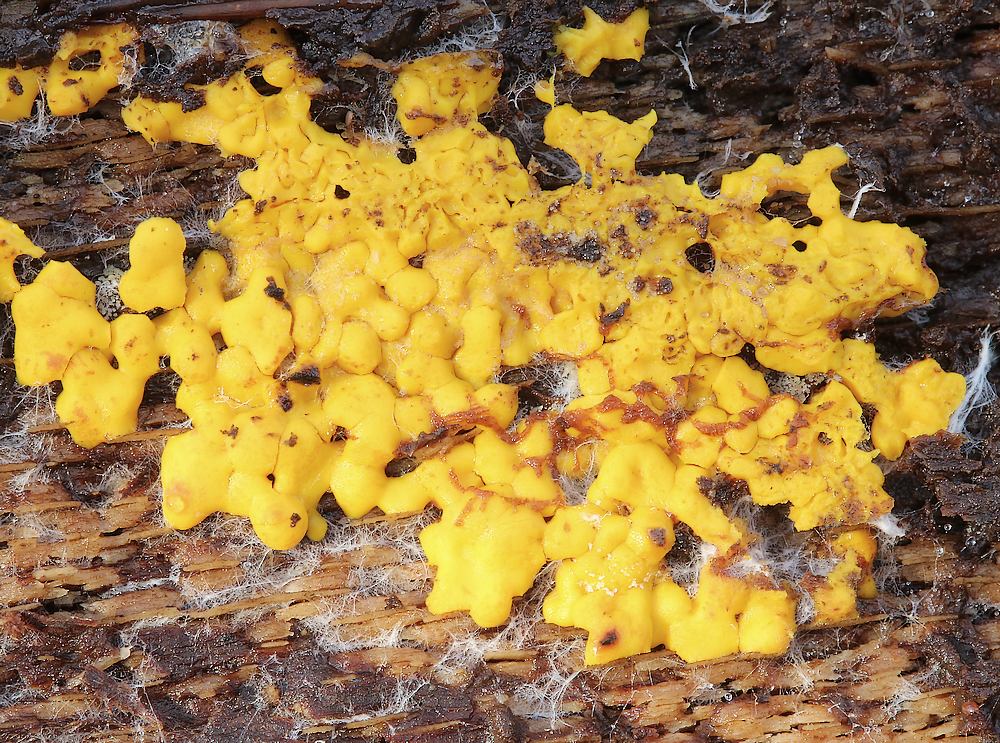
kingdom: Protozoa
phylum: Mycetozoa
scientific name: Mycetozoa
